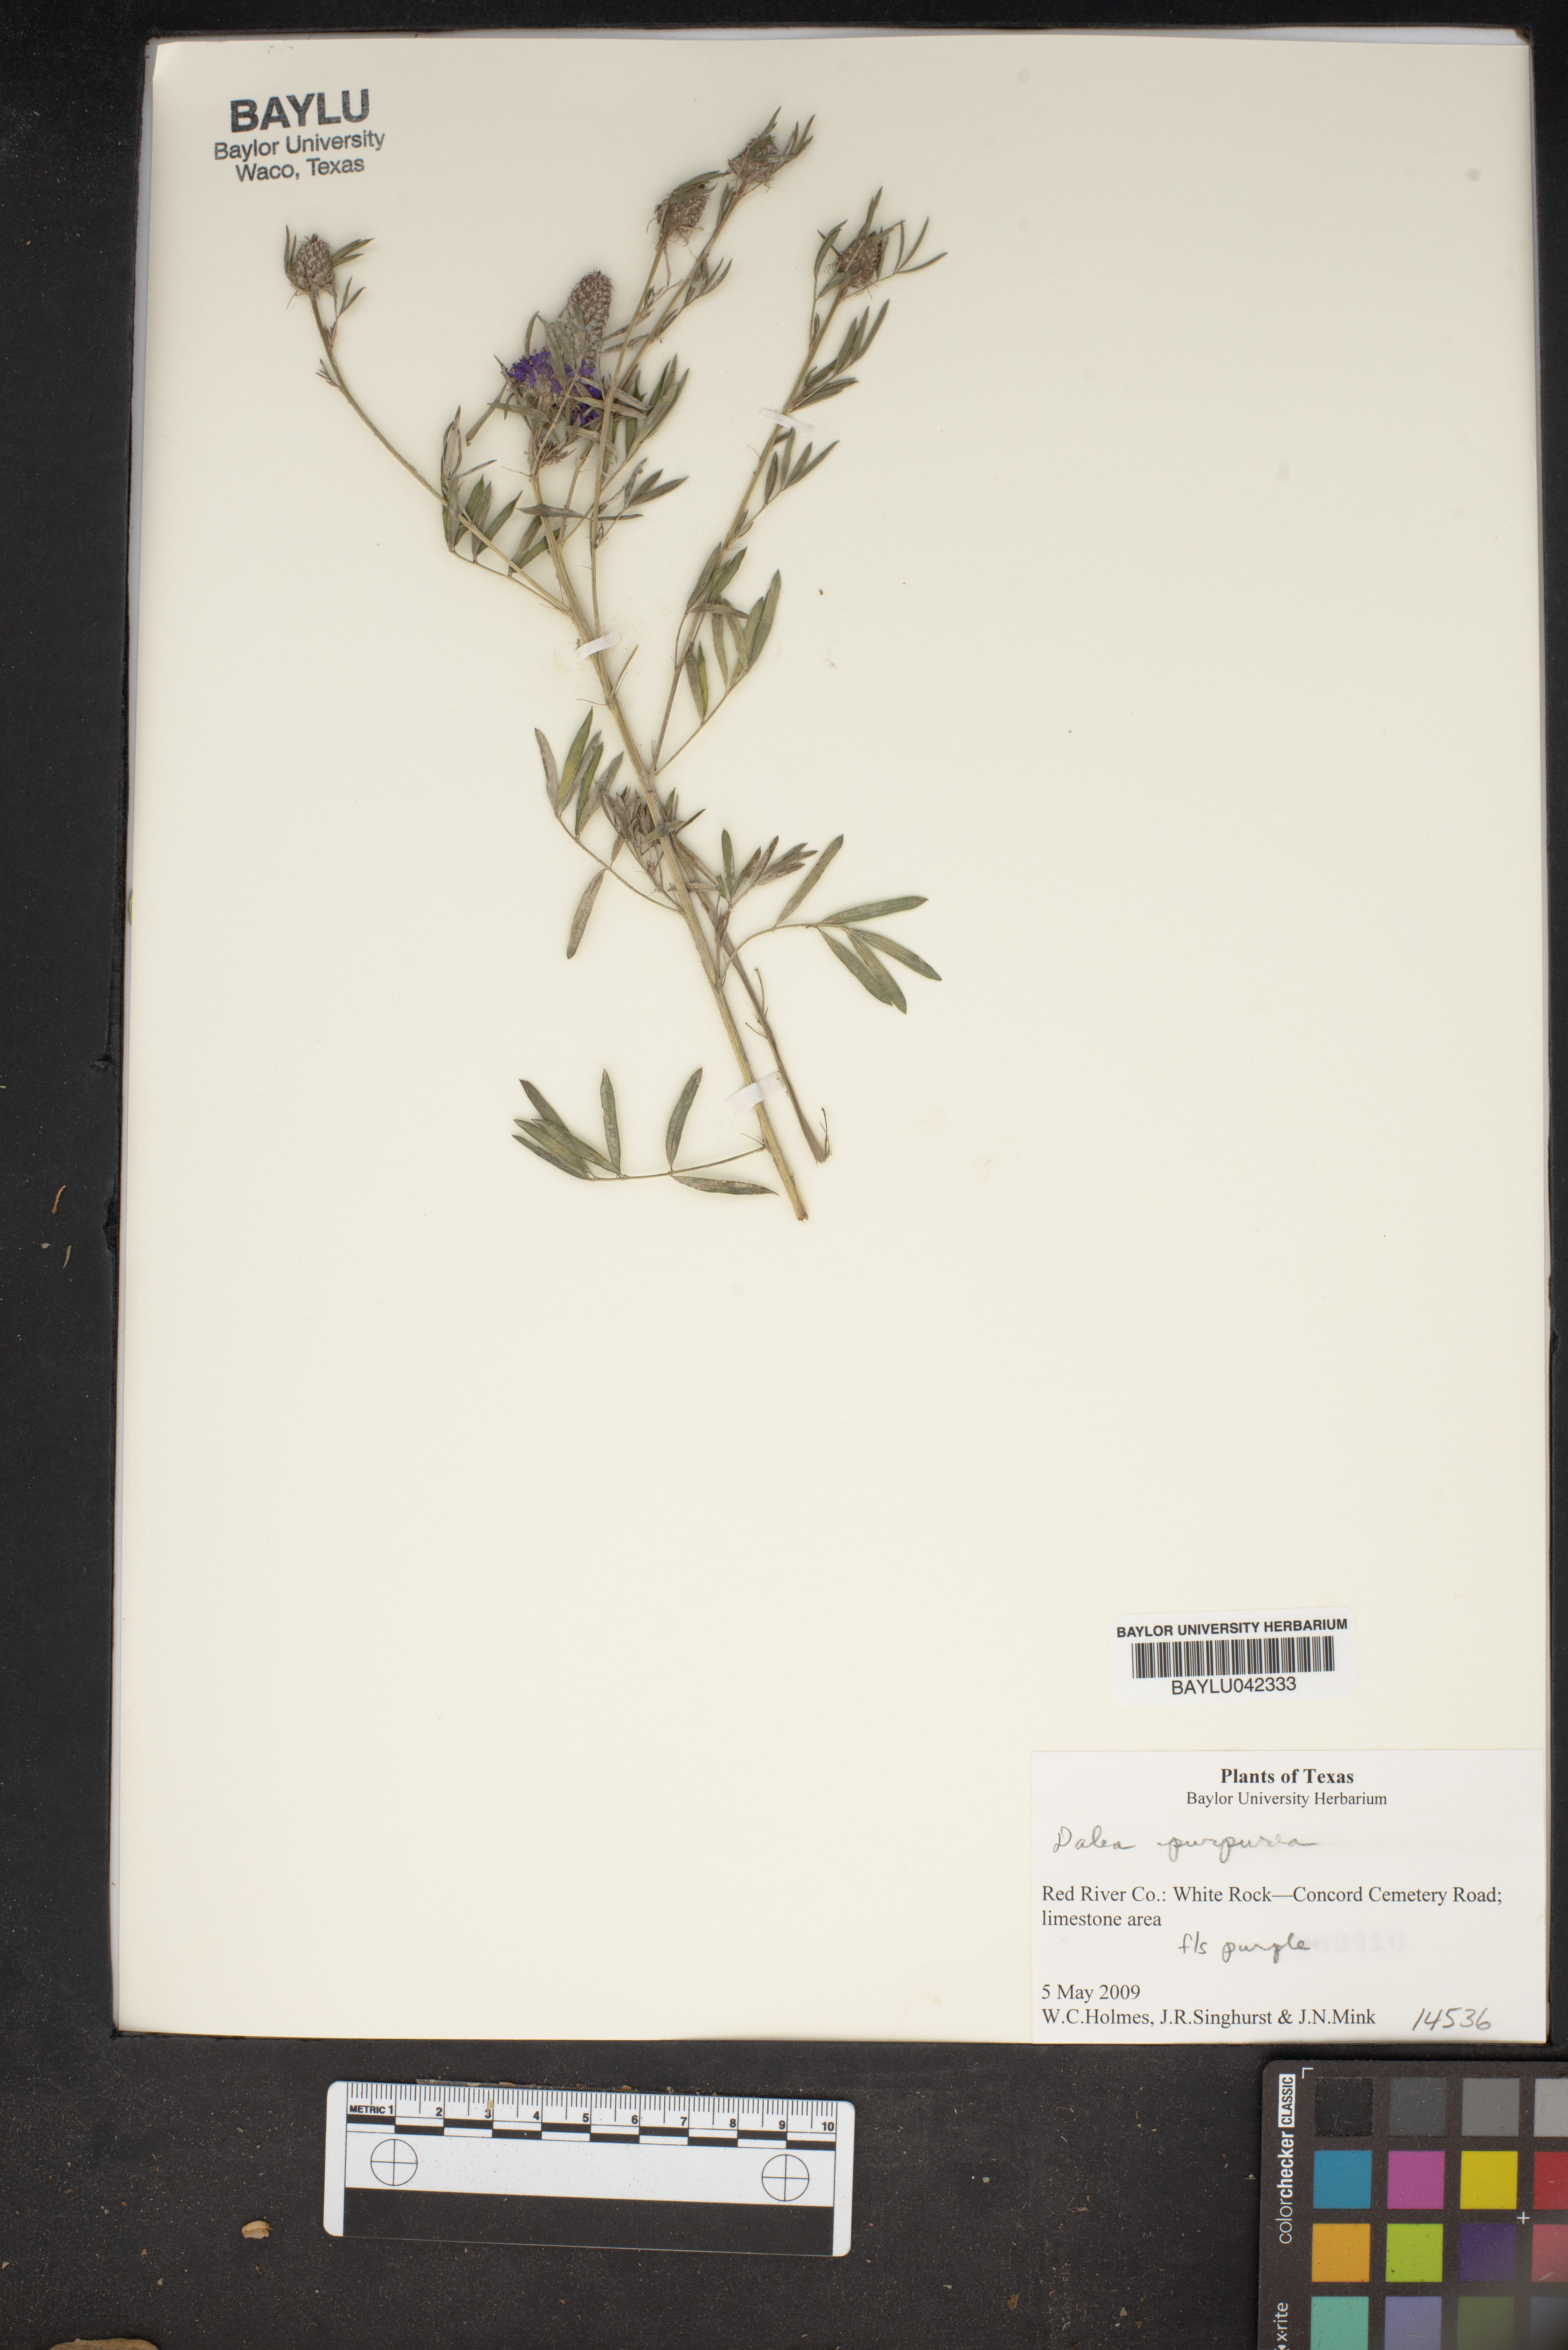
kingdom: Plantae
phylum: Tracheophyta
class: Magnoliopsida
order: Fabales
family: Fabaceae
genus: Dalea
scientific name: Dalea purpurea
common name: Purple prairie-clover
